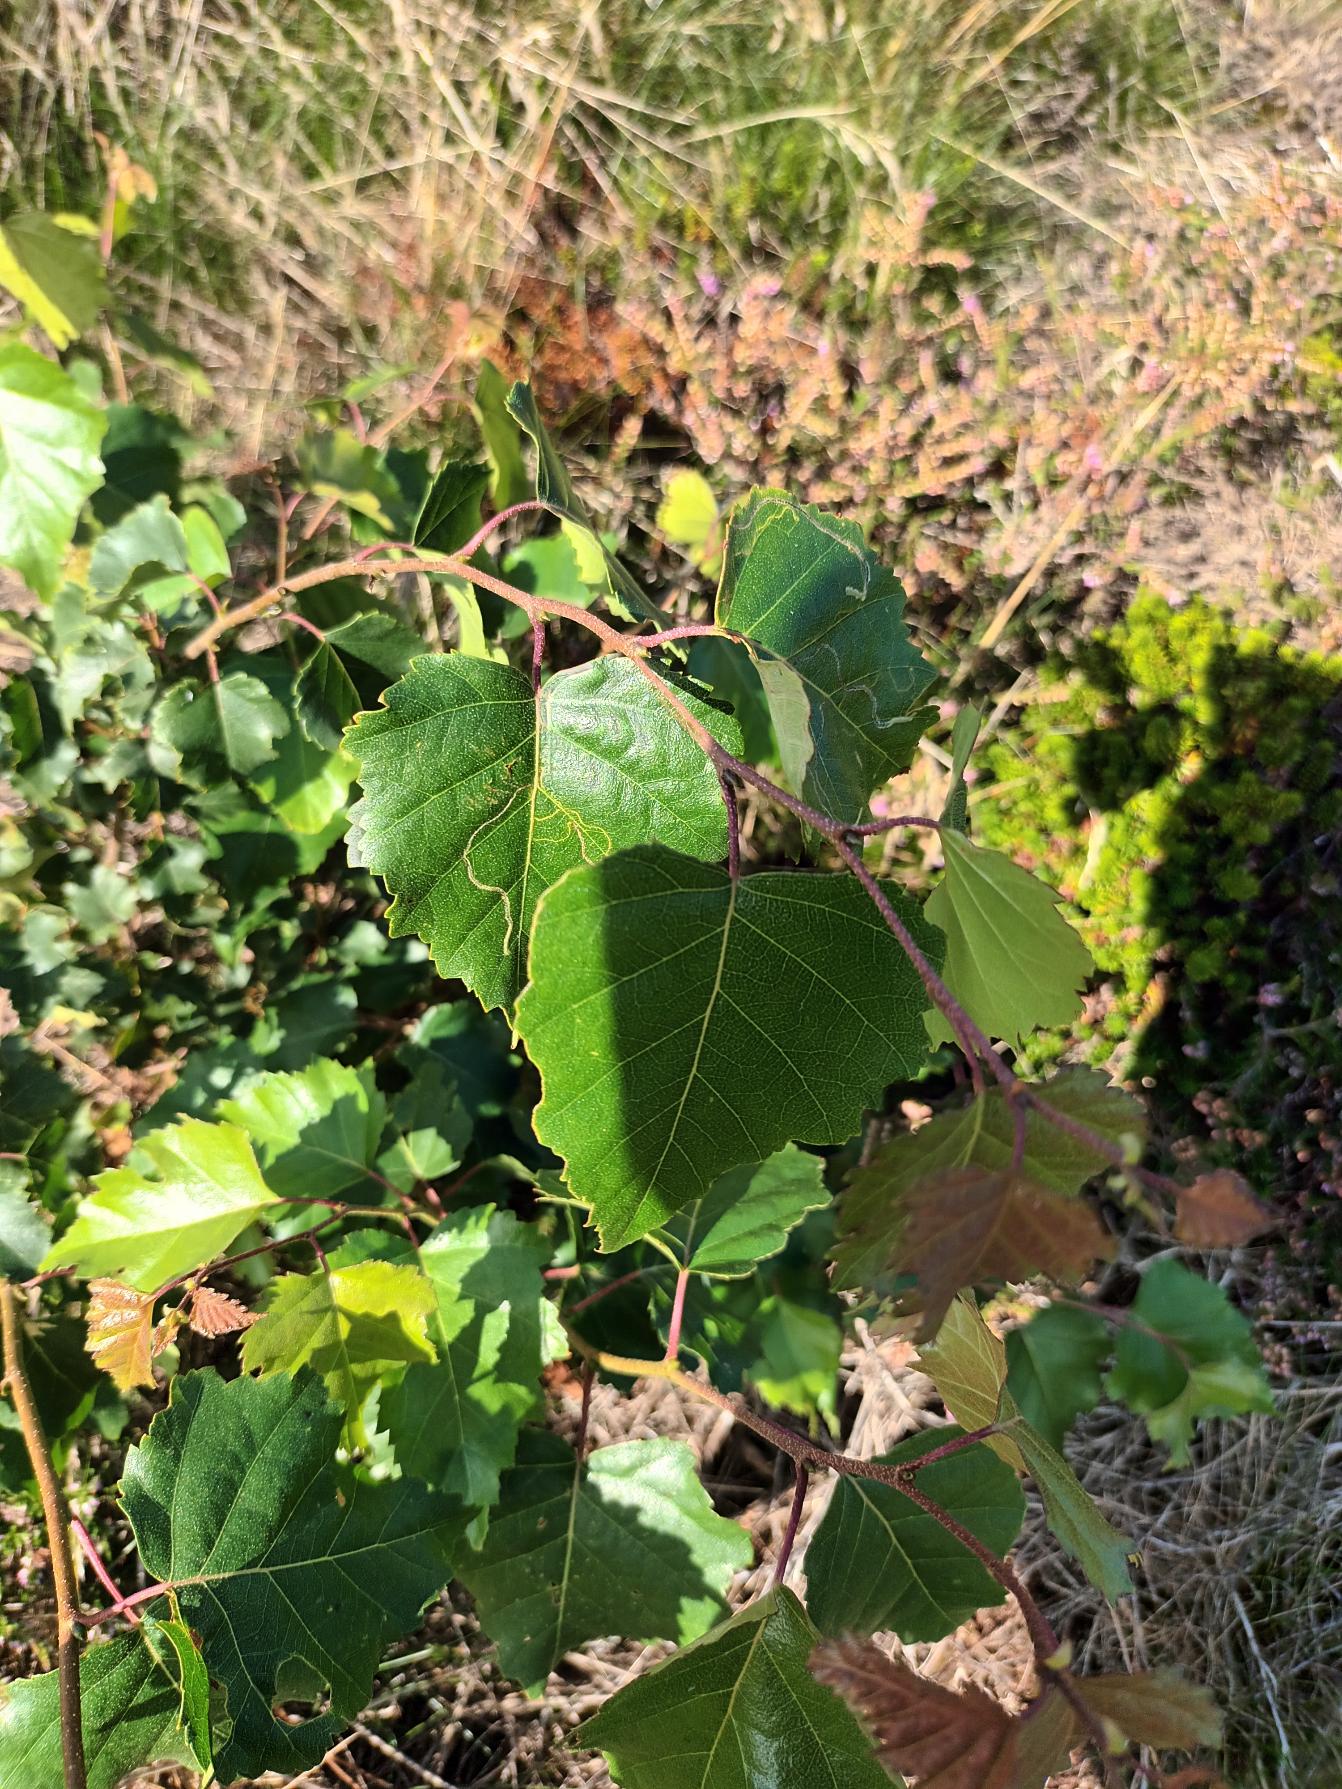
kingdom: Plantae
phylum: Tracheophyta
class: Magnoliopsida
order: Fagales
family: Betulaceae
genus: Betula
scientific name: Betula pendula
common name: Vorte-birk
